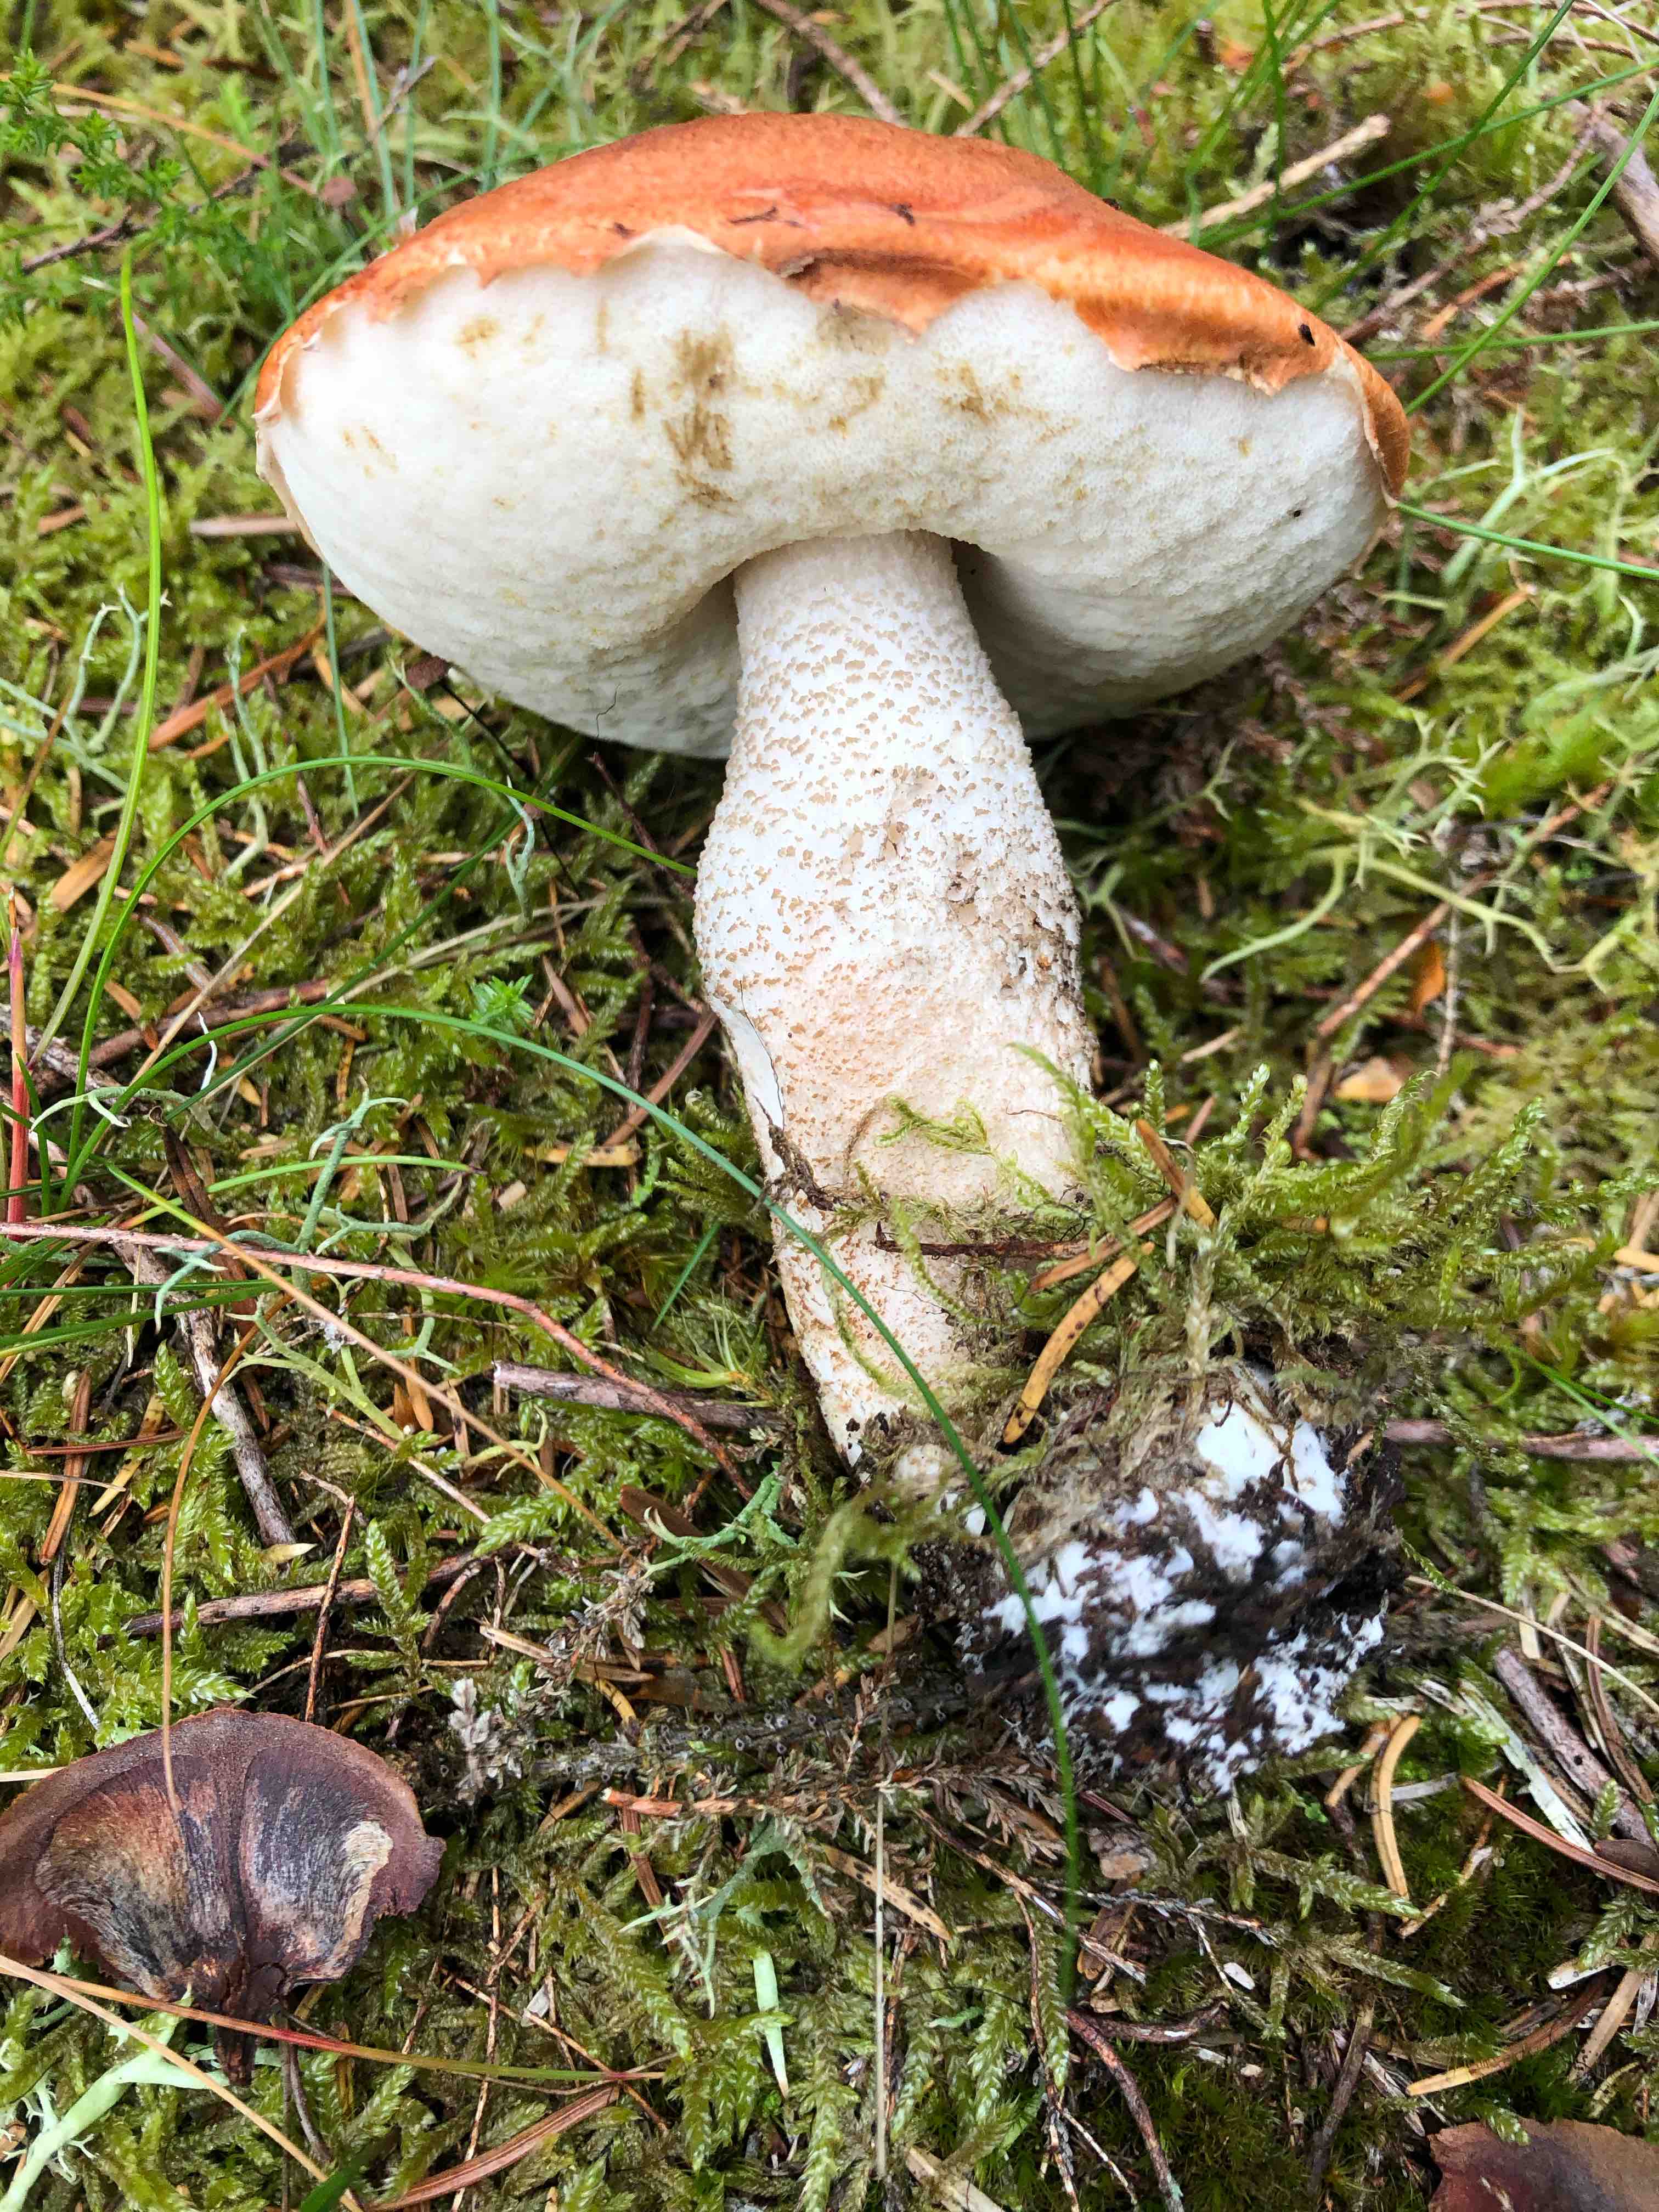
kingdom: Fungi
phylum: Basidiomycota
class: Agaricomycetes
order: Boletales
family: Boletaceae
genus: Leccinum
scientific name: Leccinum vulpinum
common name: fyrre-skælrørhat
